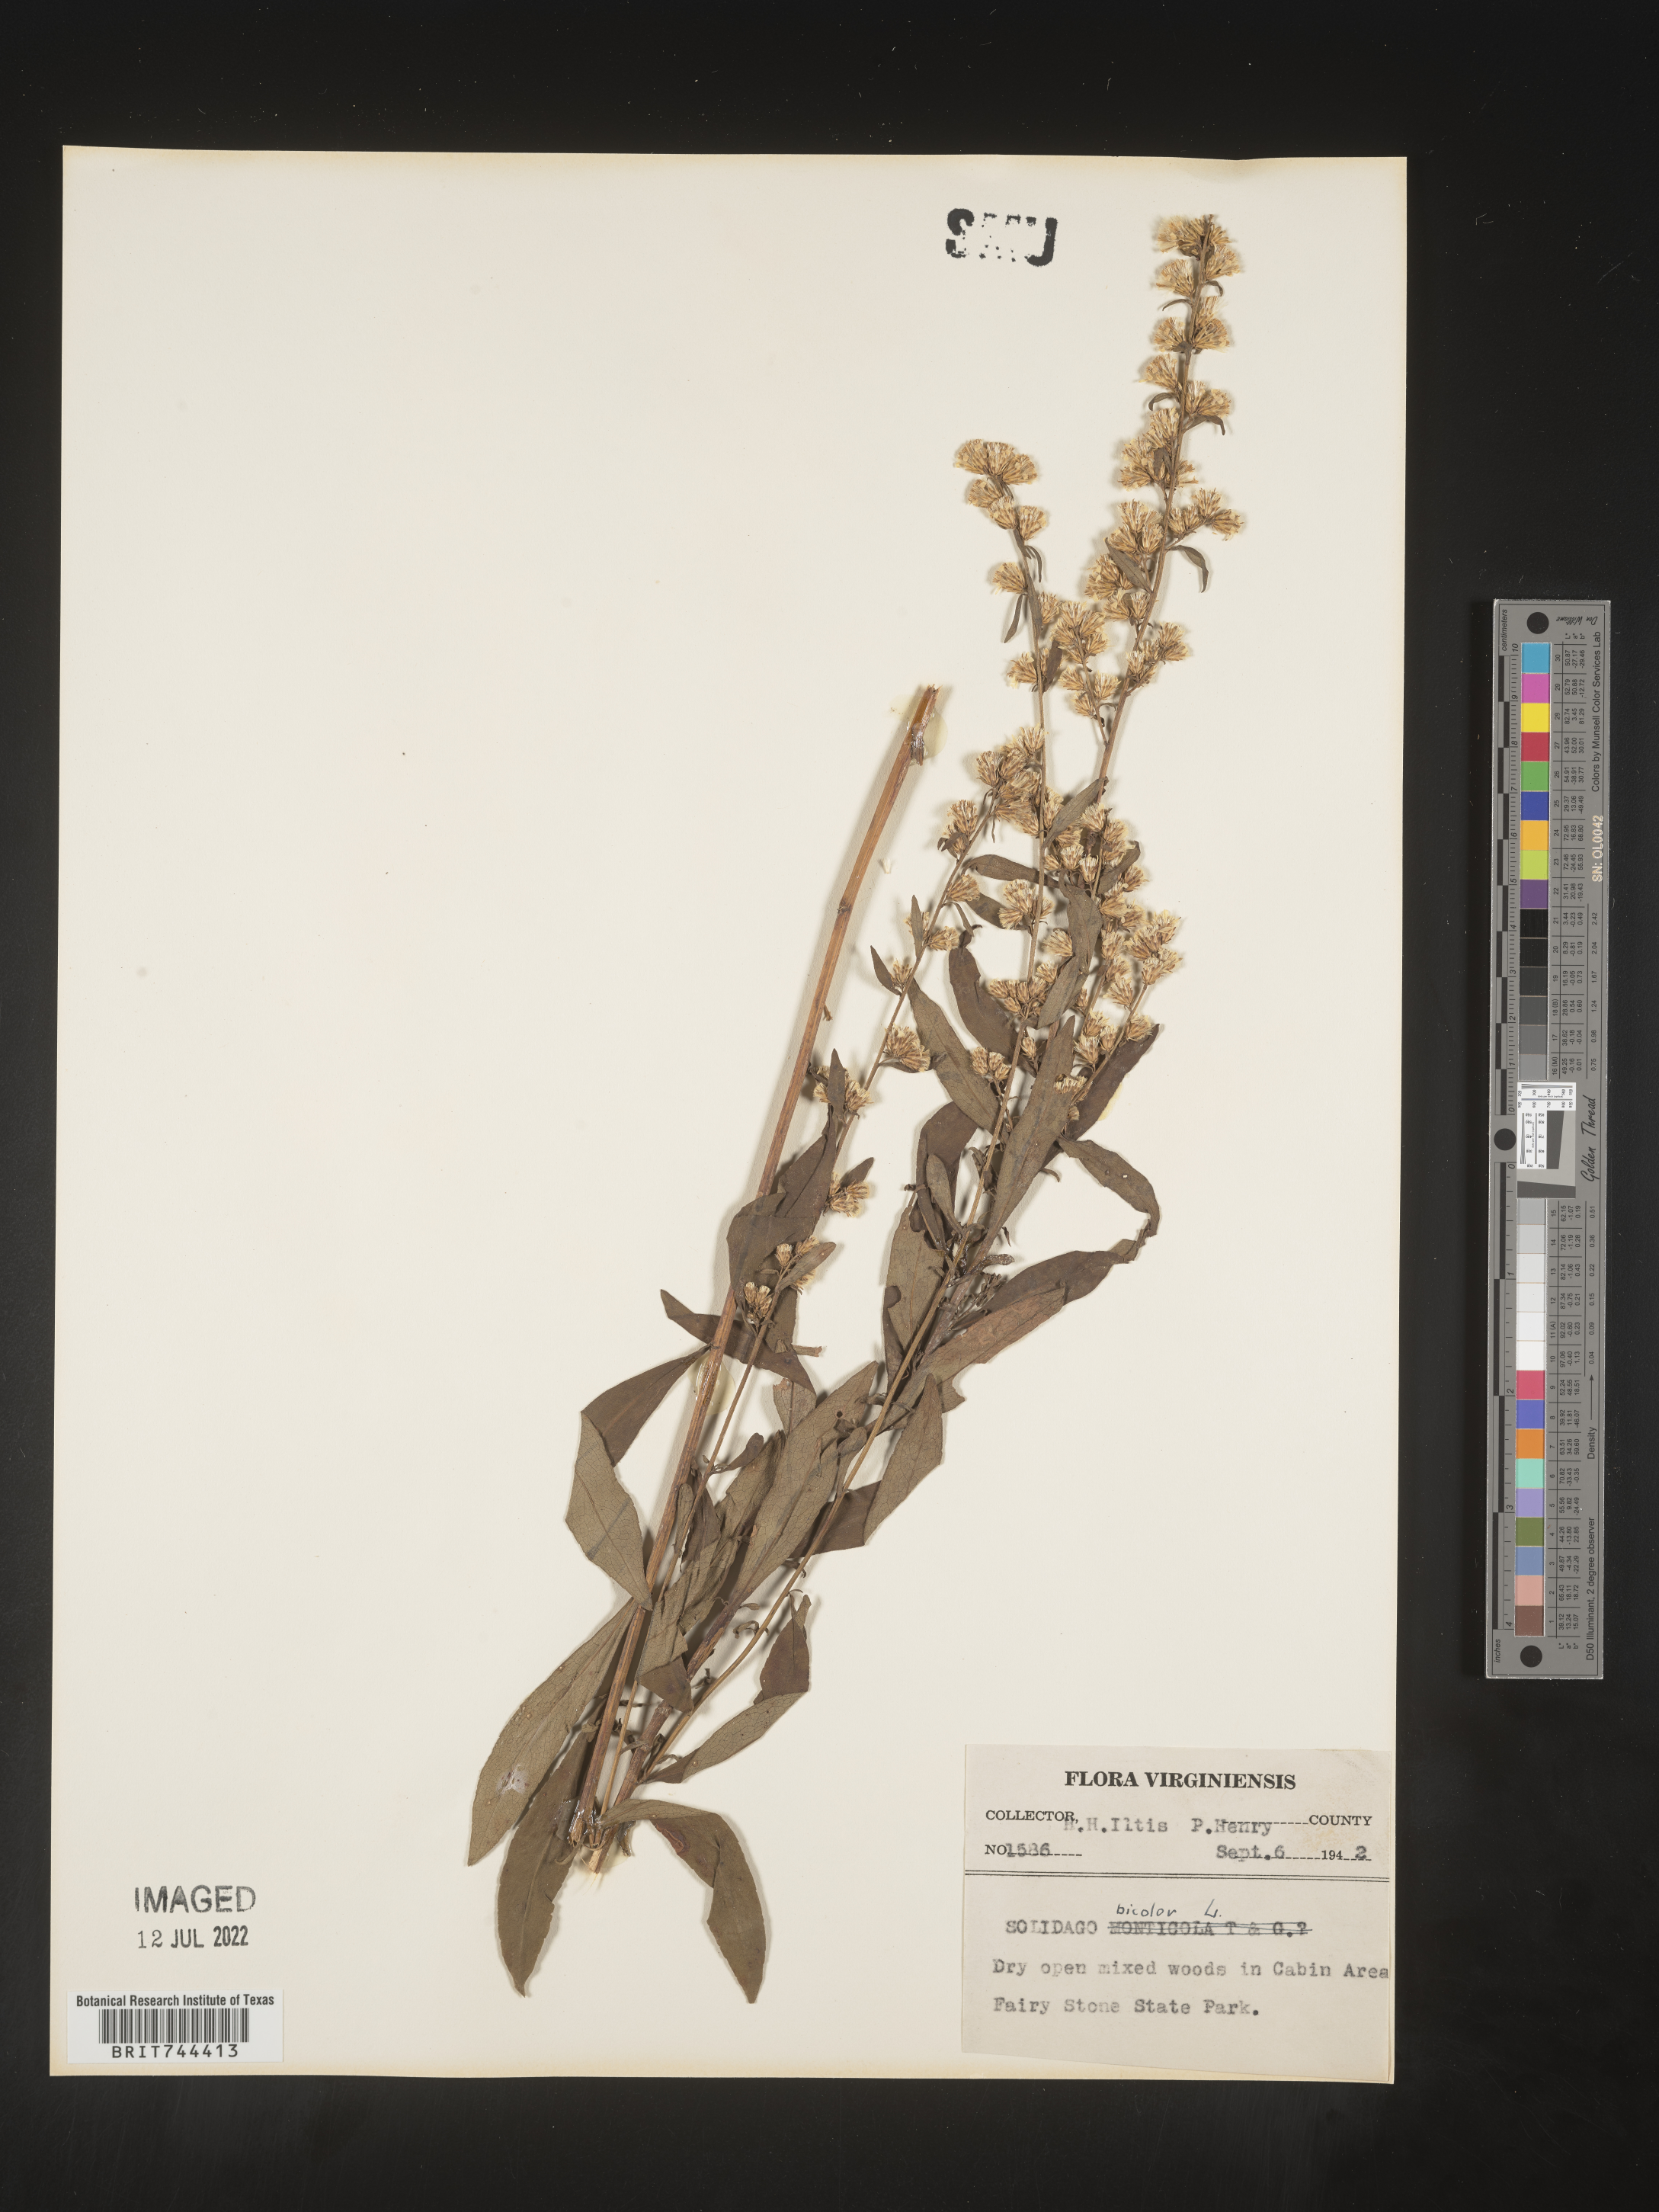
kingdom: Plantae
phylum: Tracheophyta
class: Magnoliopsida
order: Asterales
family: Asteraceae
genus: Solidago
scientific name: Solidago bicolor
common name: Silverrod
